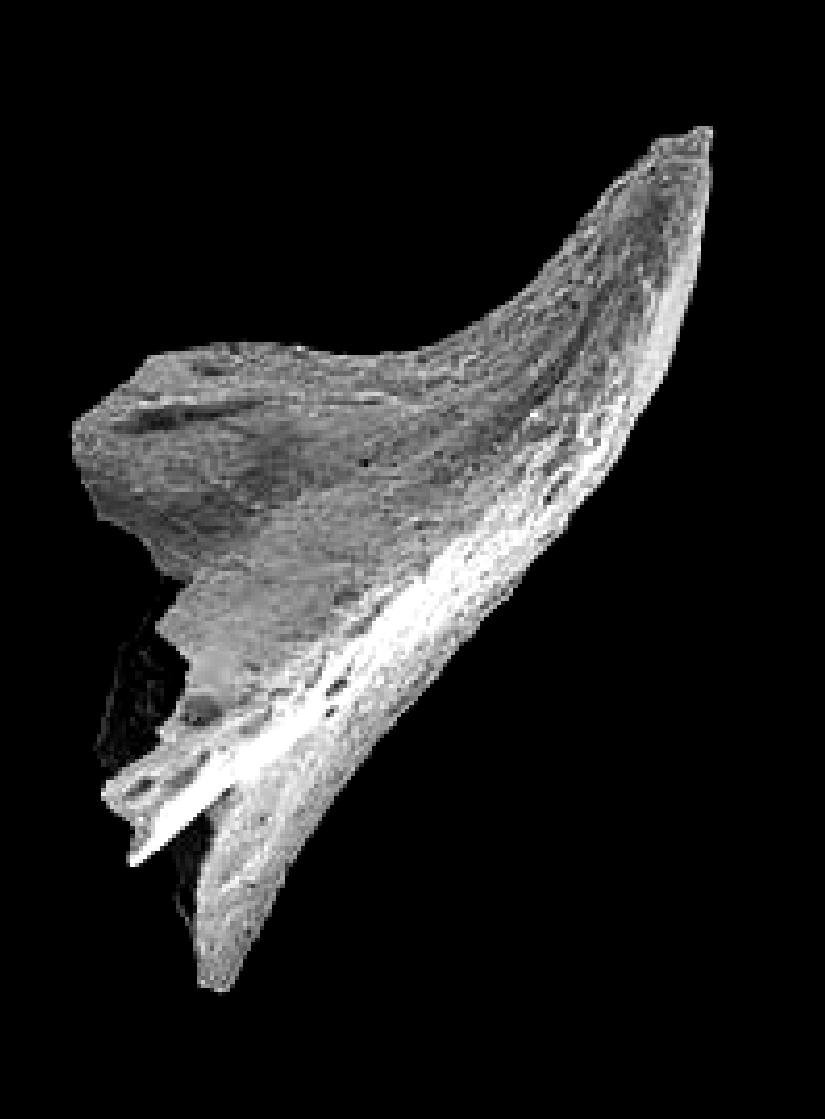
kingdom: Animalia
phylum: Chordata
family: Balognathidae
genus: Trapezognathus
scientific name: Trapezognathus Prioniodina diprion
